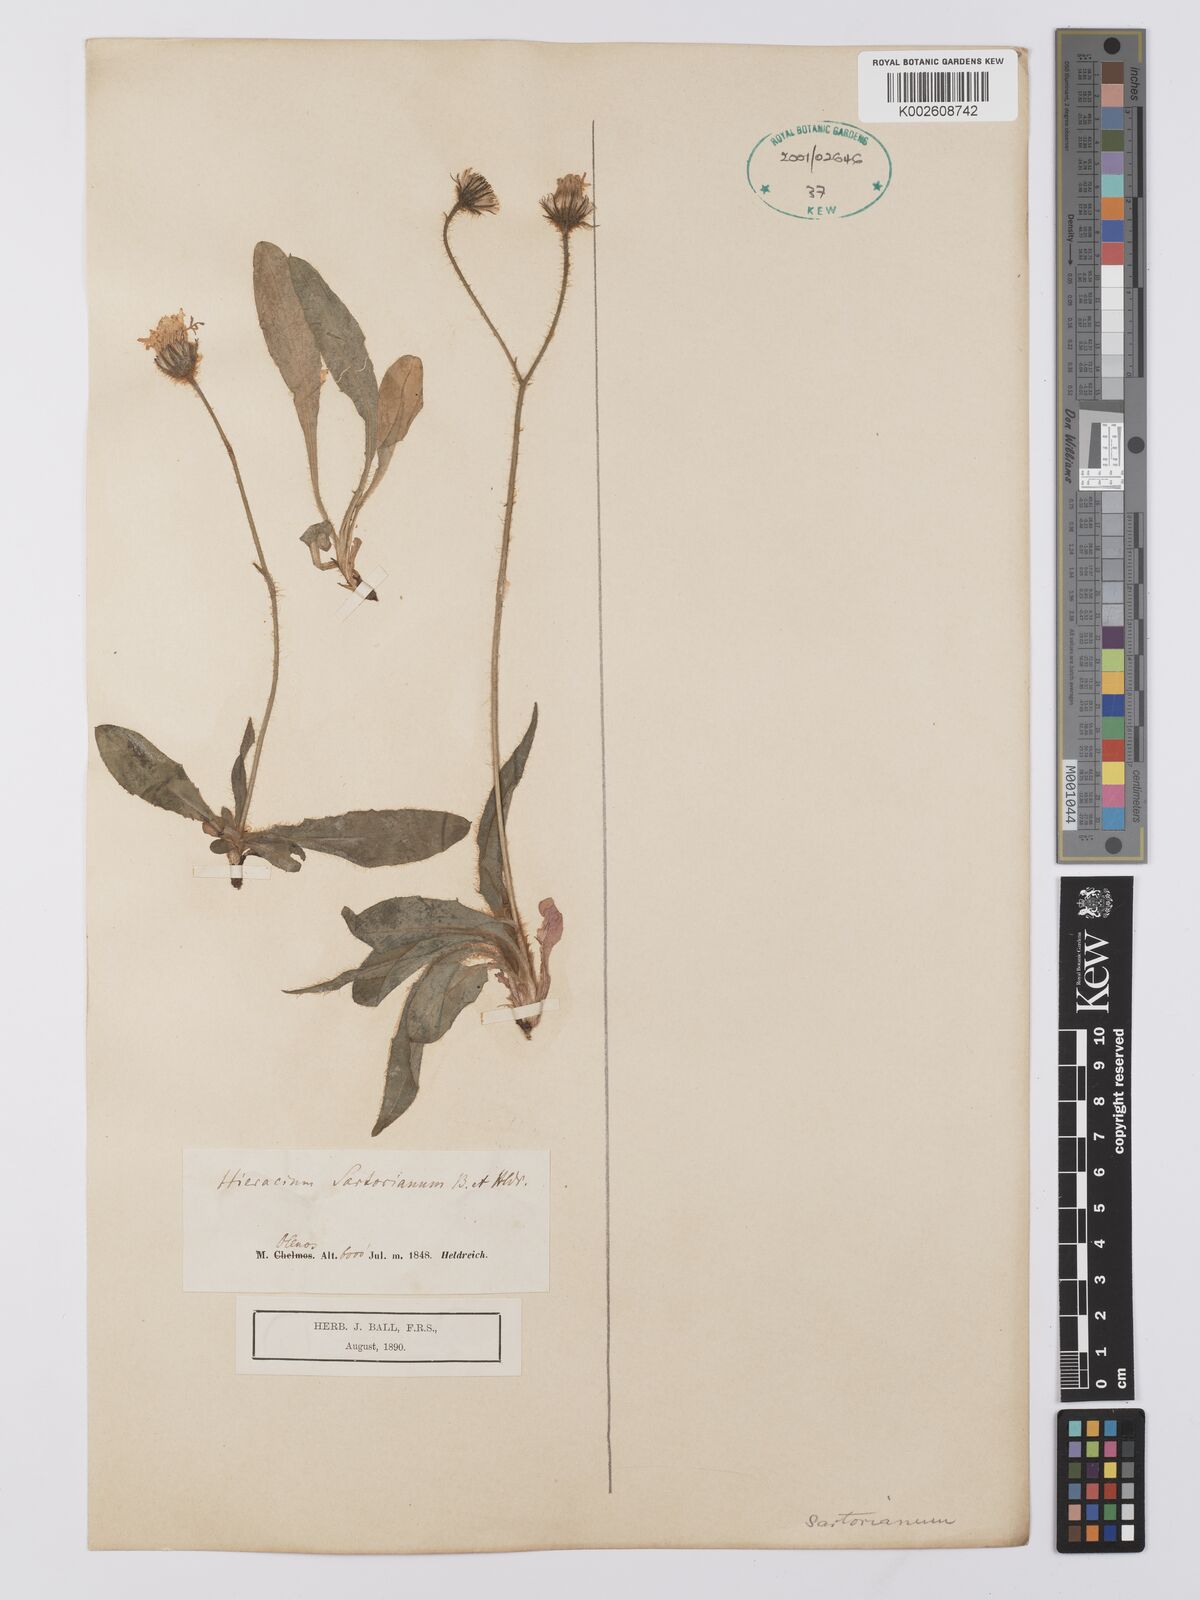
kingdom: Plantae
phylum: Tracheophyta
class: Magnoliopsida
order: Asterales
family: Asteraceae
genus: Hieracium
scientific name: Hieracium sartorianum
